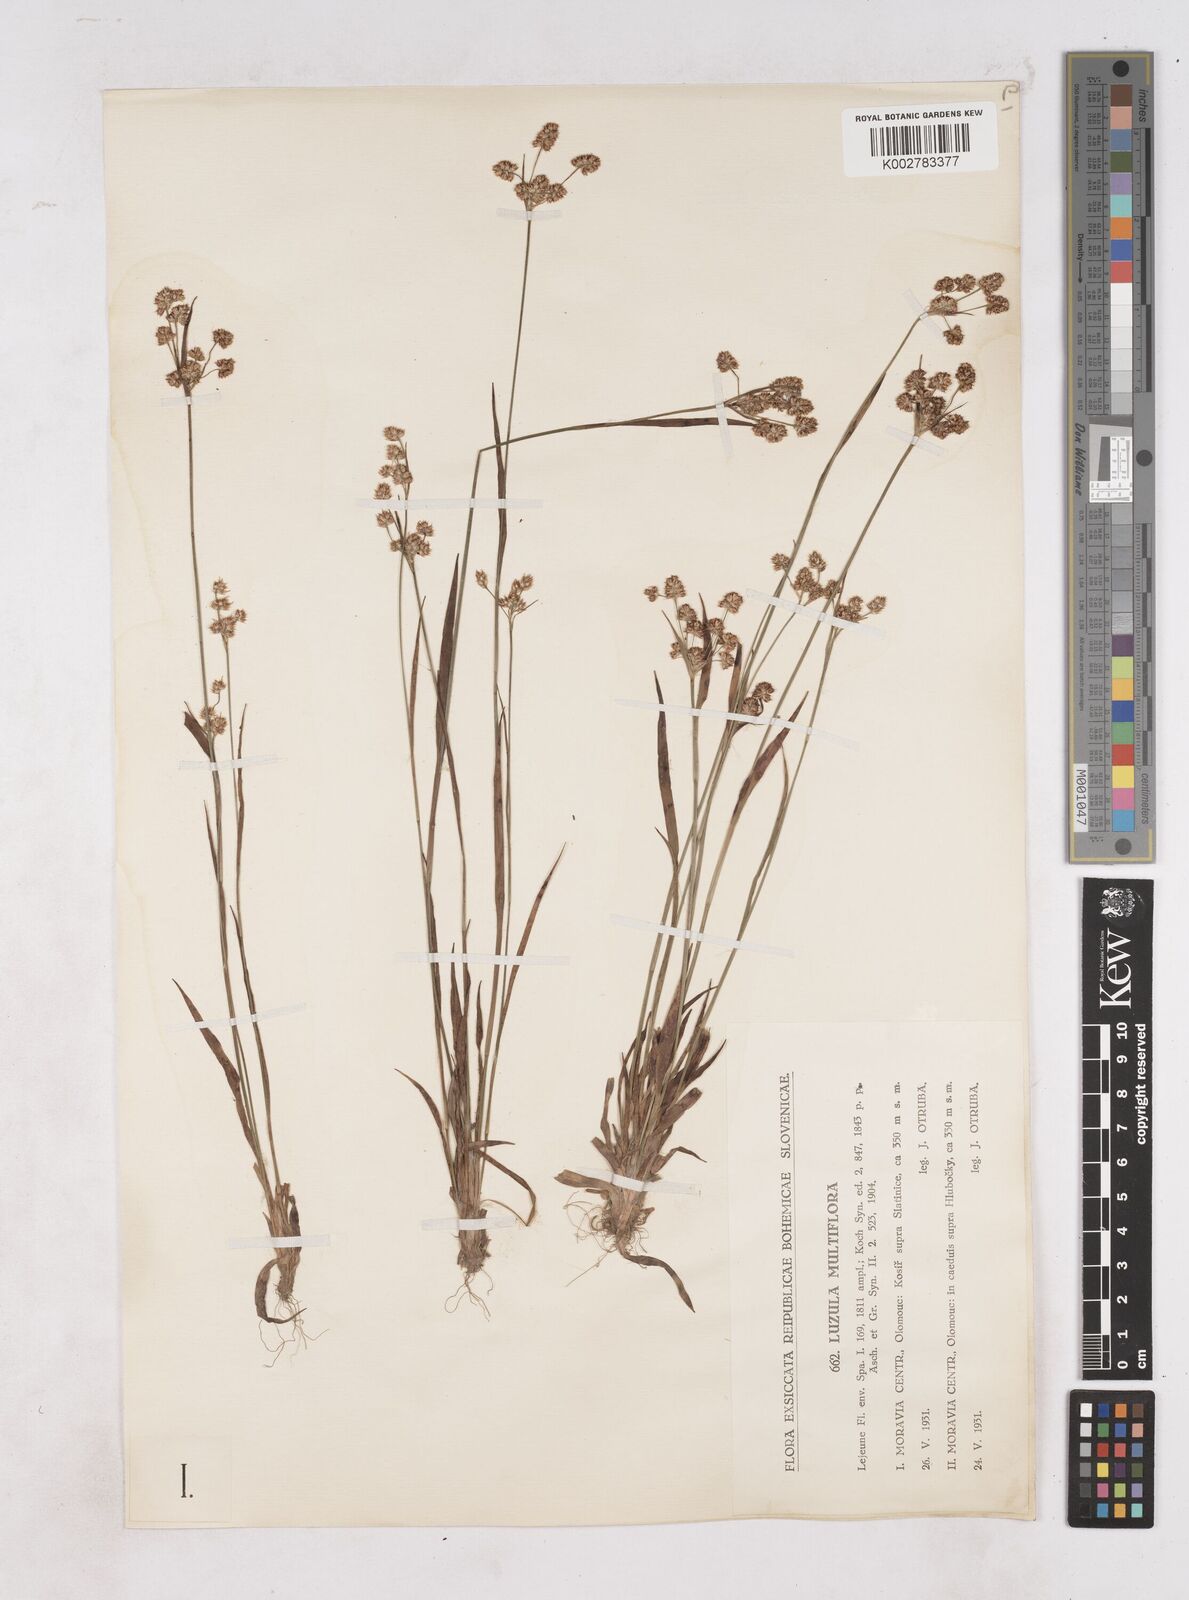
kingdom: Plantae
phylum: Tracheophyta
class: Liliopsida
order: Poales
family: Juncaceae
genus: Luzula
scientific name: Luzula multiflora
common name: Heath wood-rush
